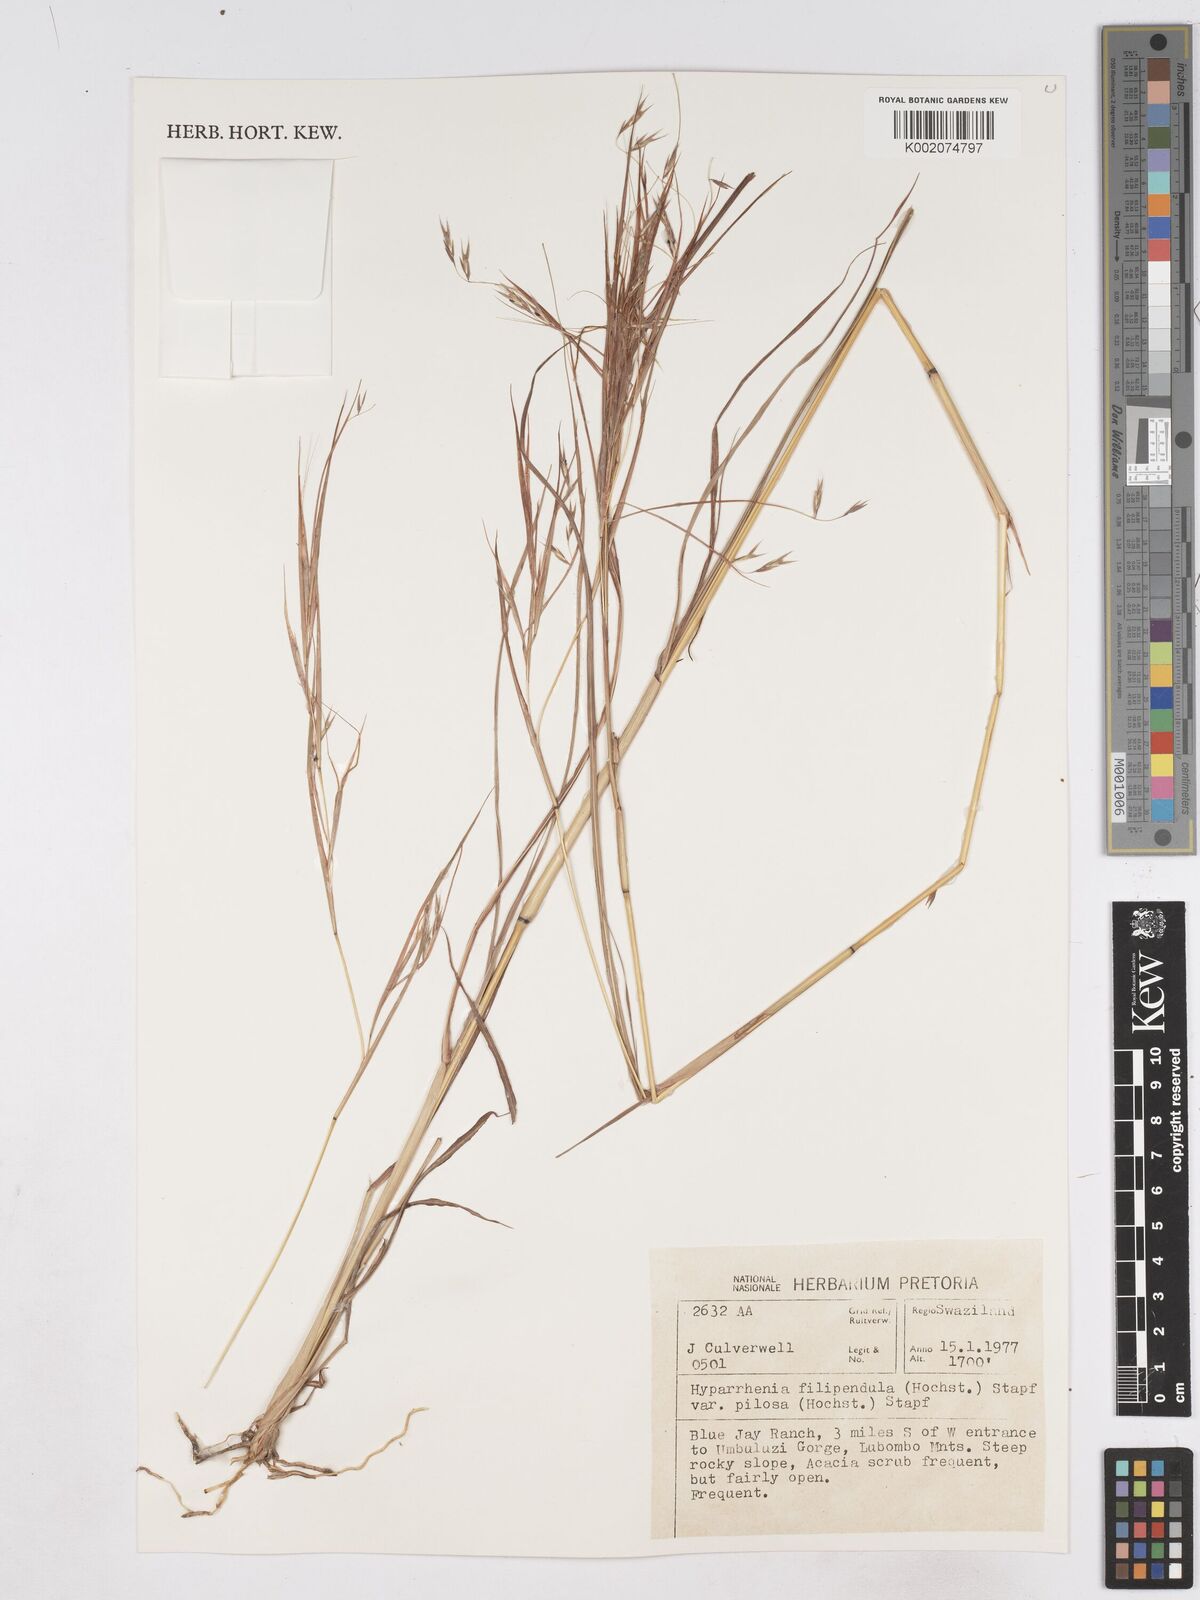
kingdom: Plantae
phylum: Tracheophyta
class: Liliopsida
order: Poales
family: Poaceae
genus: Hyparrhenia
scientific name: Hyparrhenia filipendula
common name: Tambookie grass
